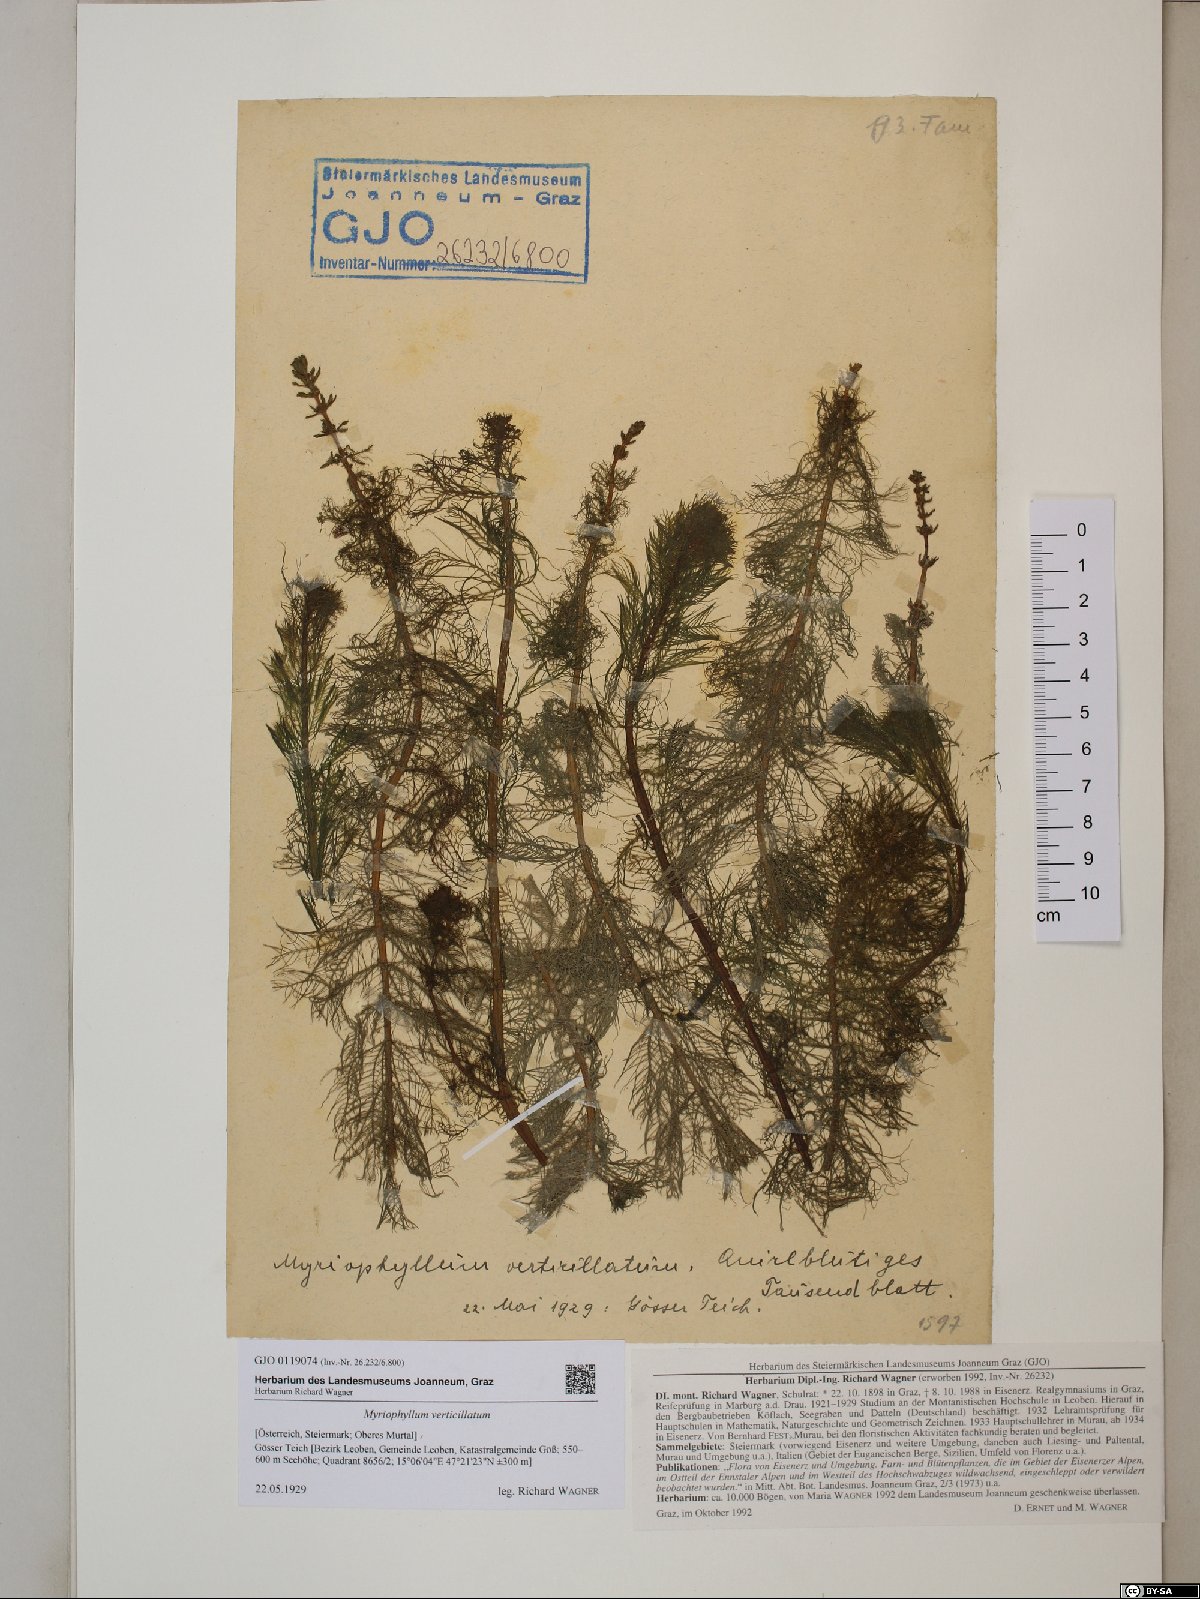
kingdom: Plantae
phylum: Tracheophyta
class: Magnoliopsida
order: Saxifragales
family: Haloragaceae
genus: Myriophyllum
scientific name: Myriophyllum verticillatum
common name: Whorled water-milfoil
